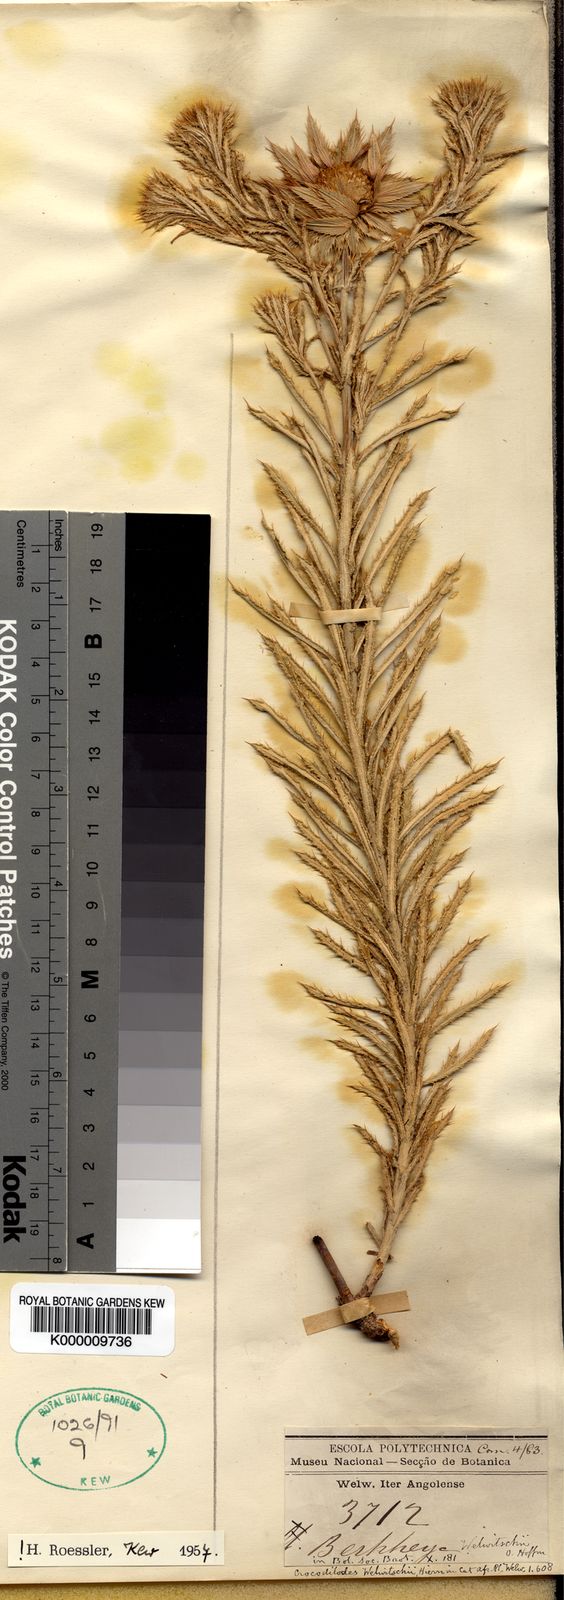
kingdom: Plantae
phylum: Tracheophyta
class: Magnoliopsida
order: Asterales
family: Asteraceae
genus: Berkheya
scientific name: Berkheya welwitschii
